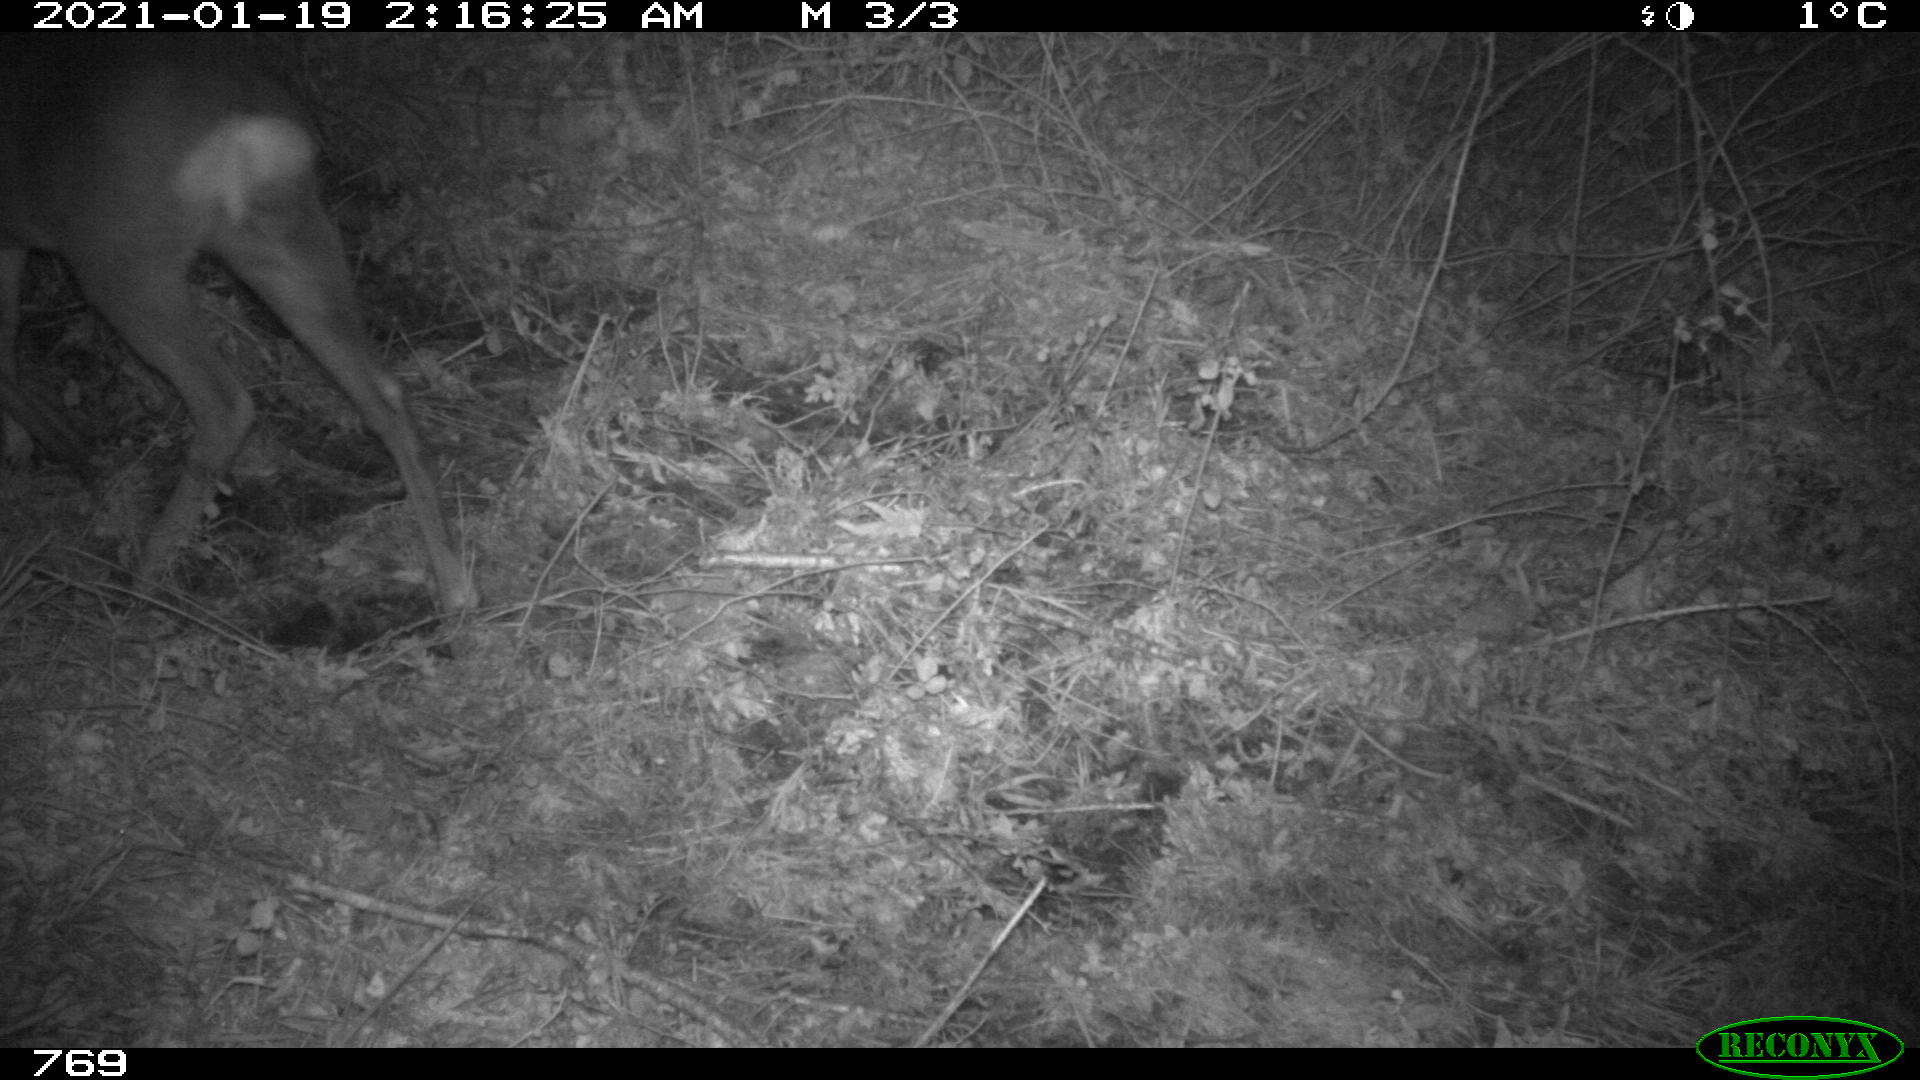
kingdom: Animalia
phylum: Chordata
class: Mammalia
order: Artiodactyla
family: Cervidae
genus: Capreolus
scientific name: Capreolus capreolus
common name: Western roe deer
